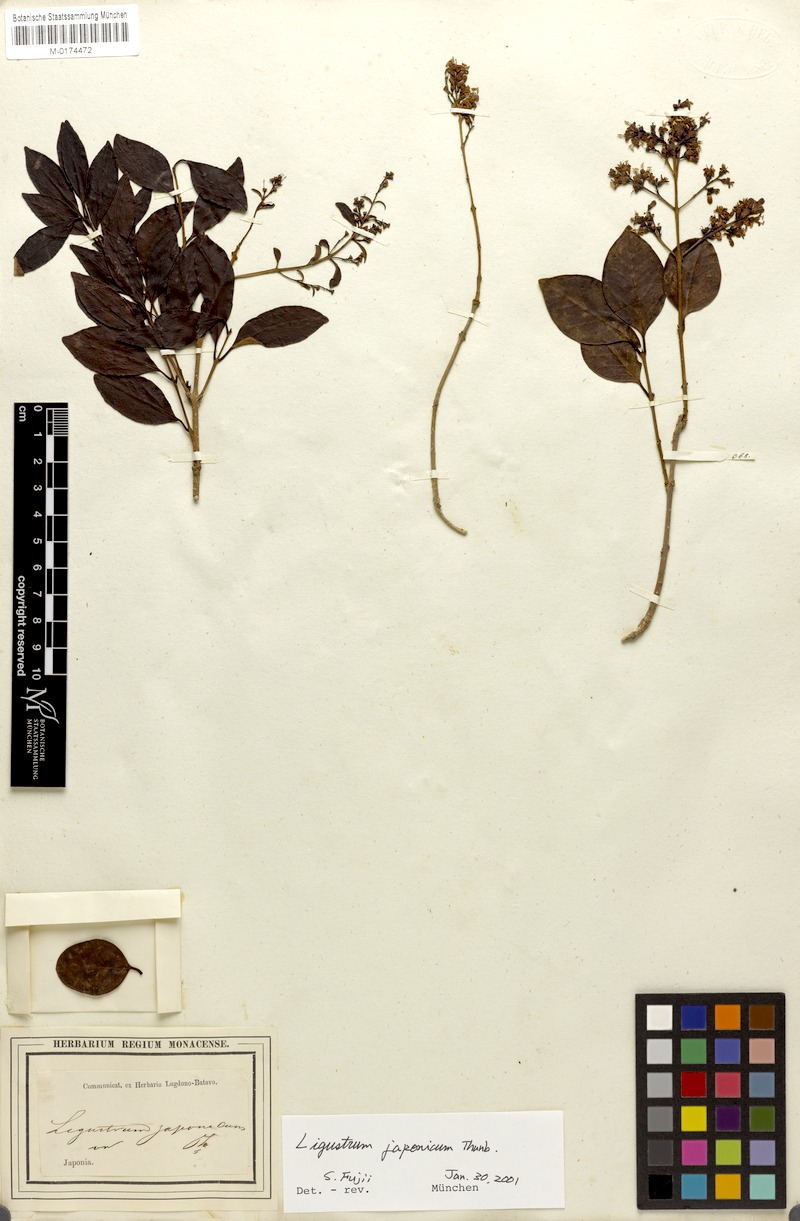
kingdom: Plantae
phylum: Tracheophyta
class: Magnoliopsida
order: Lamiales
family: Oleaceae
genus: Ligustrum
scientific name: Ligustrum japonicum
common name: Japanese privet
